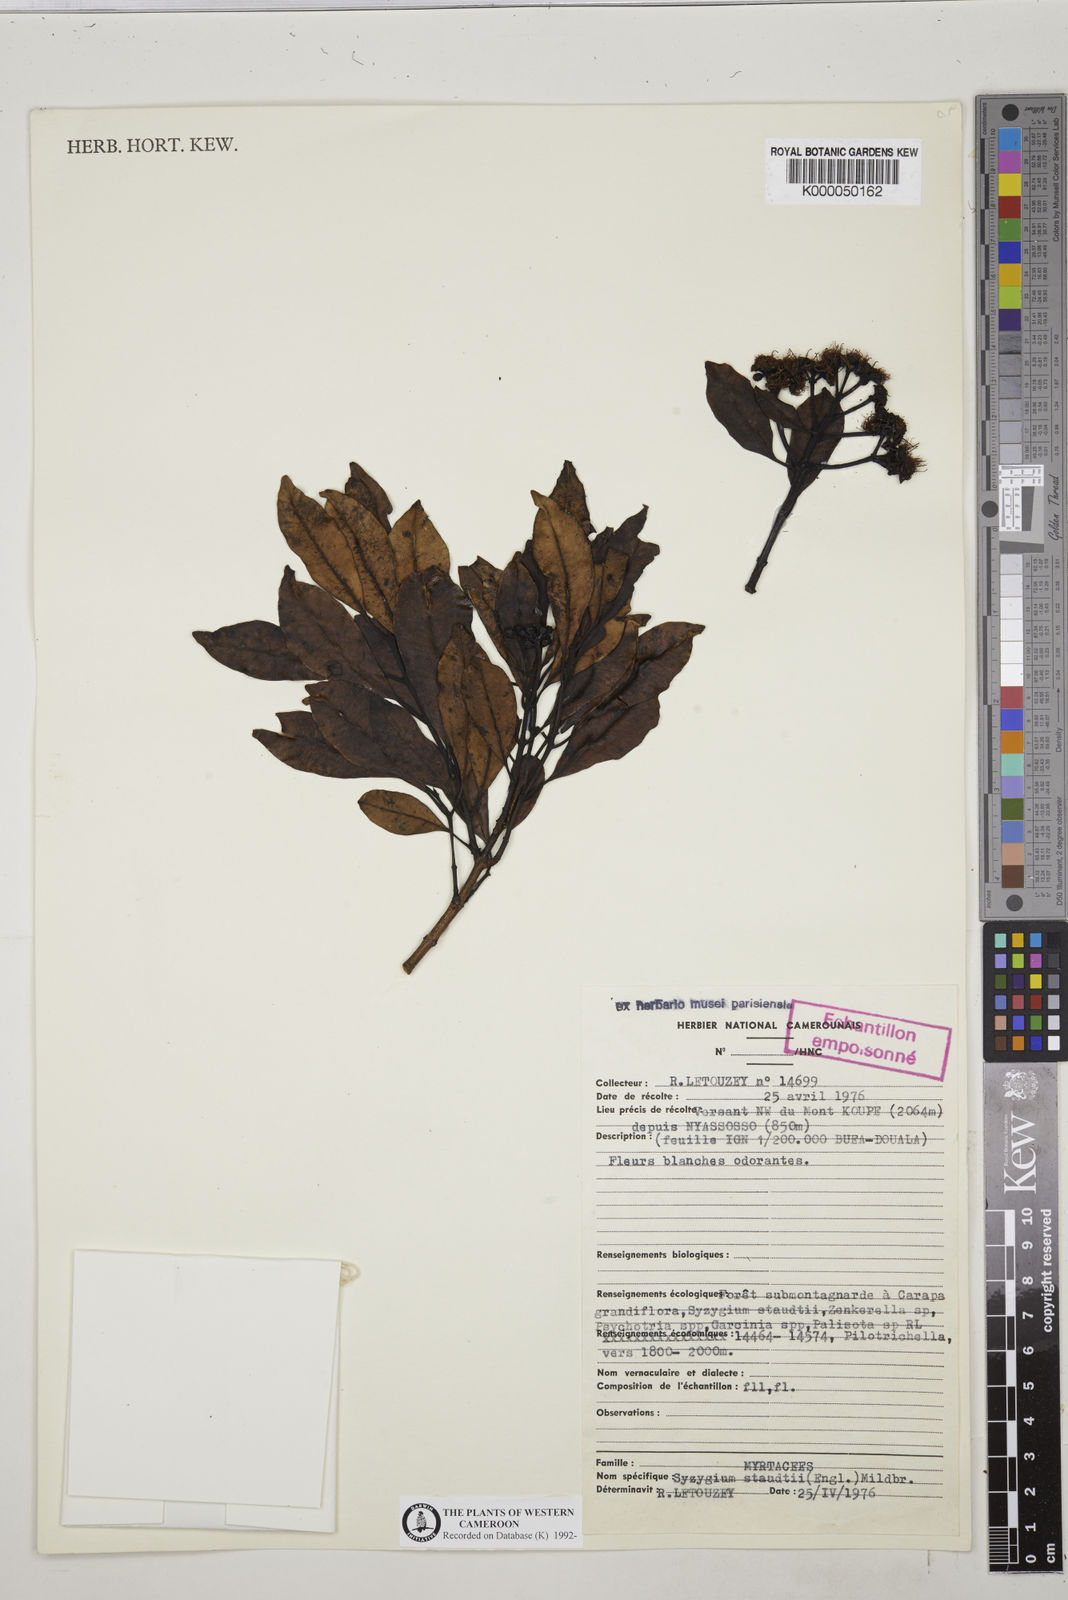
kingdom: Plantae
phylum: Tracheophyta
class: Magnoliopsida
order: Myrtales
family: Myrtaceae
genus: Syzygium
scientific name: Syzygium staudtii
